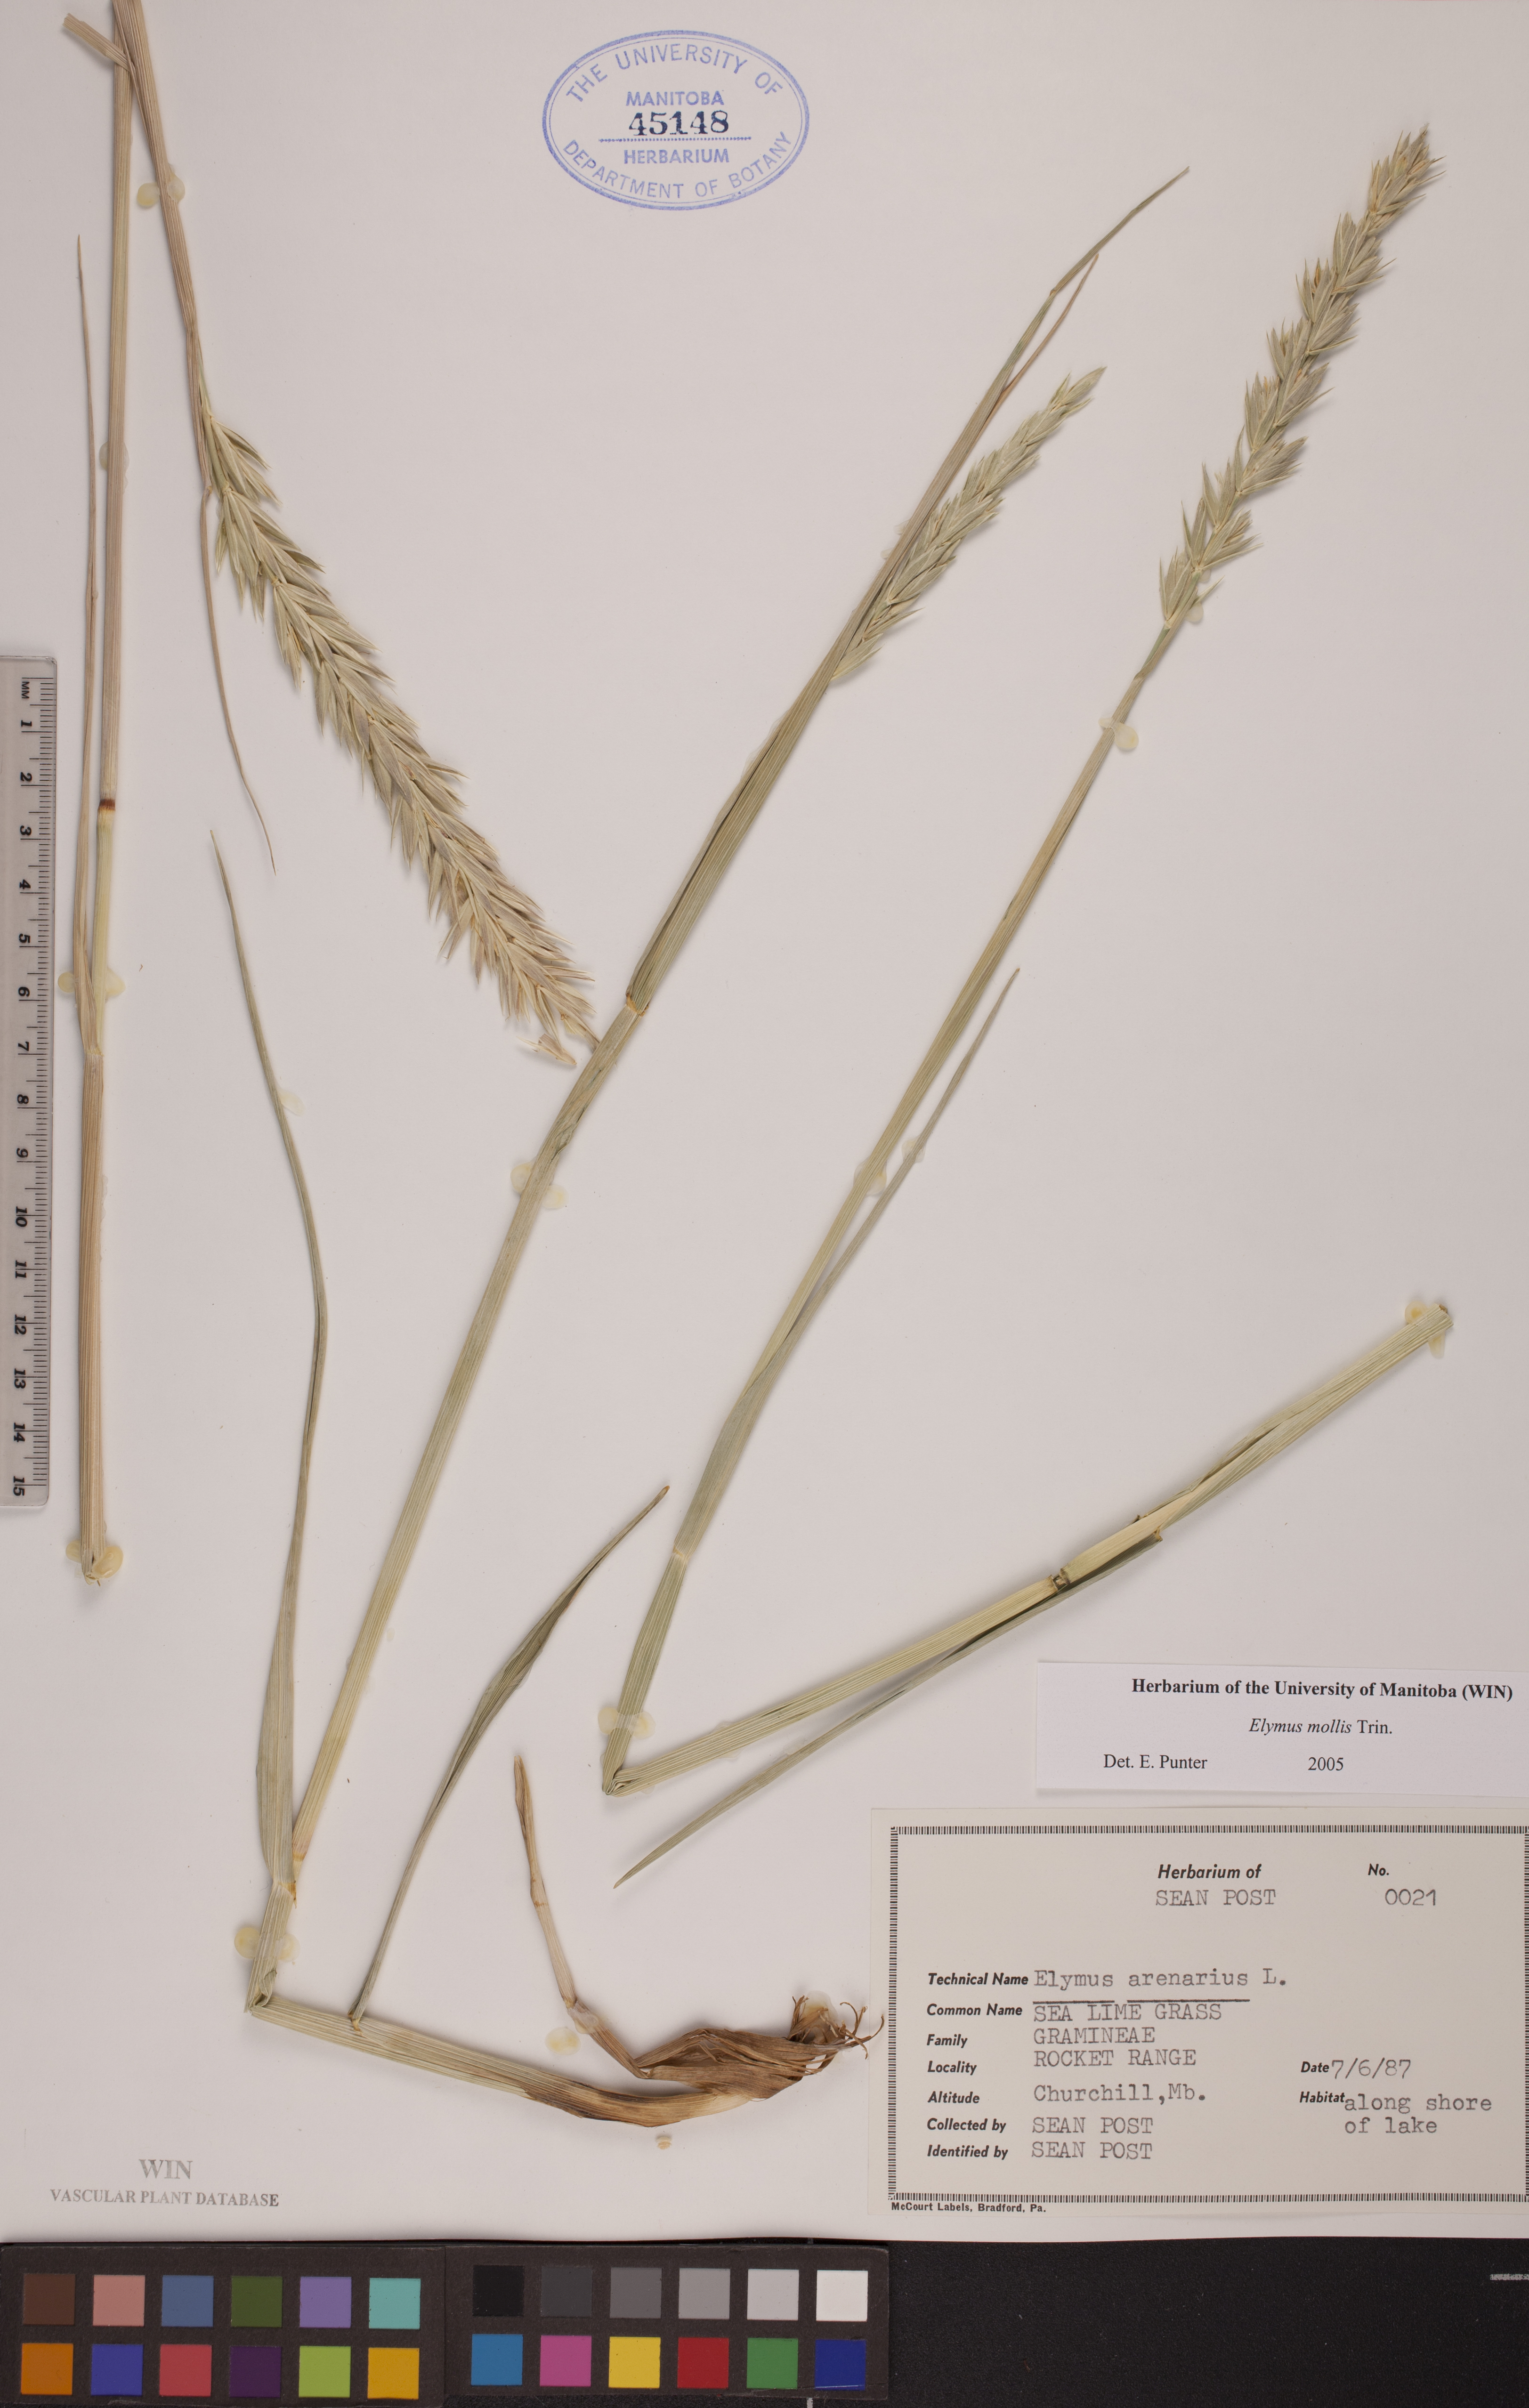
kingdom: Plantae
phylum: Tracheophyta
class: Liliopsida
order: Poales
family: Poaceae
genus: Leymus
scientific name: Leymus mollis
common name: American dune grass
